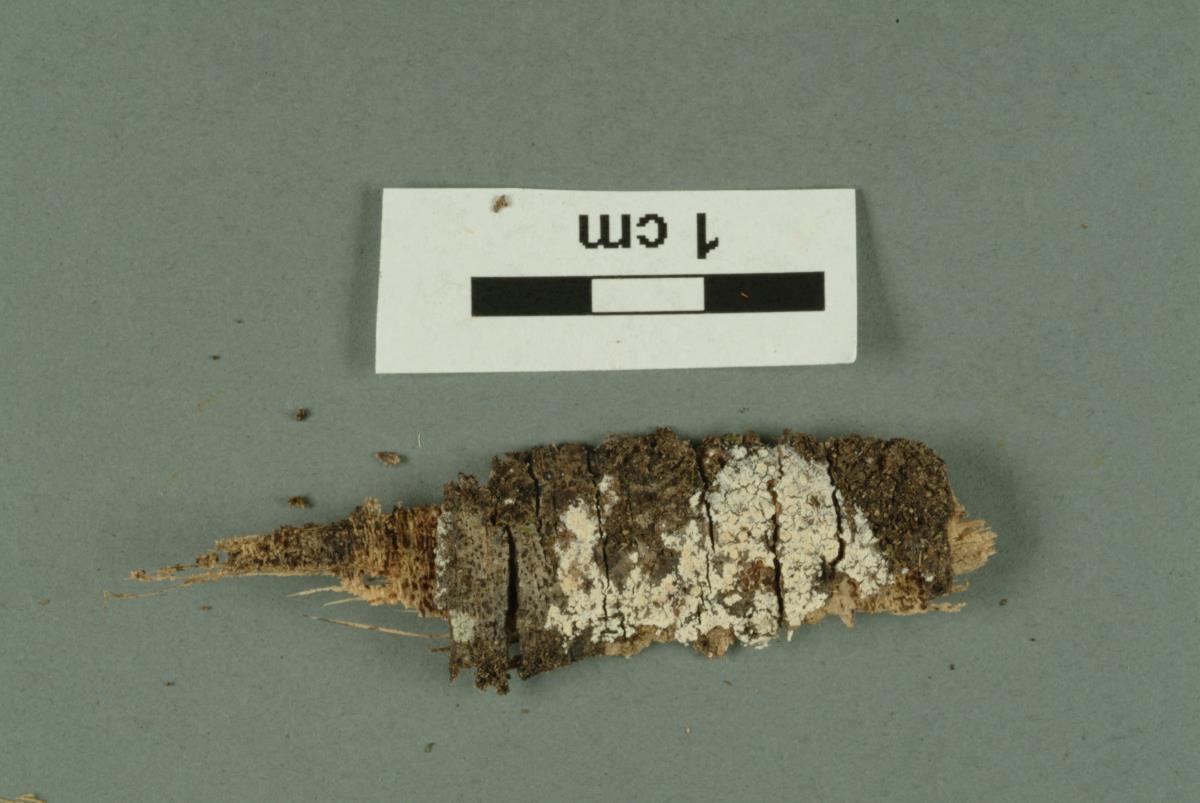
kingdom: Fungi
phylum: Basidiomycota
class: Agaricomycetes
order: Polyporales
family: Hyphodermataceae
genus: Hyphoderma
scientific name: Hyphoderma incrustatum
